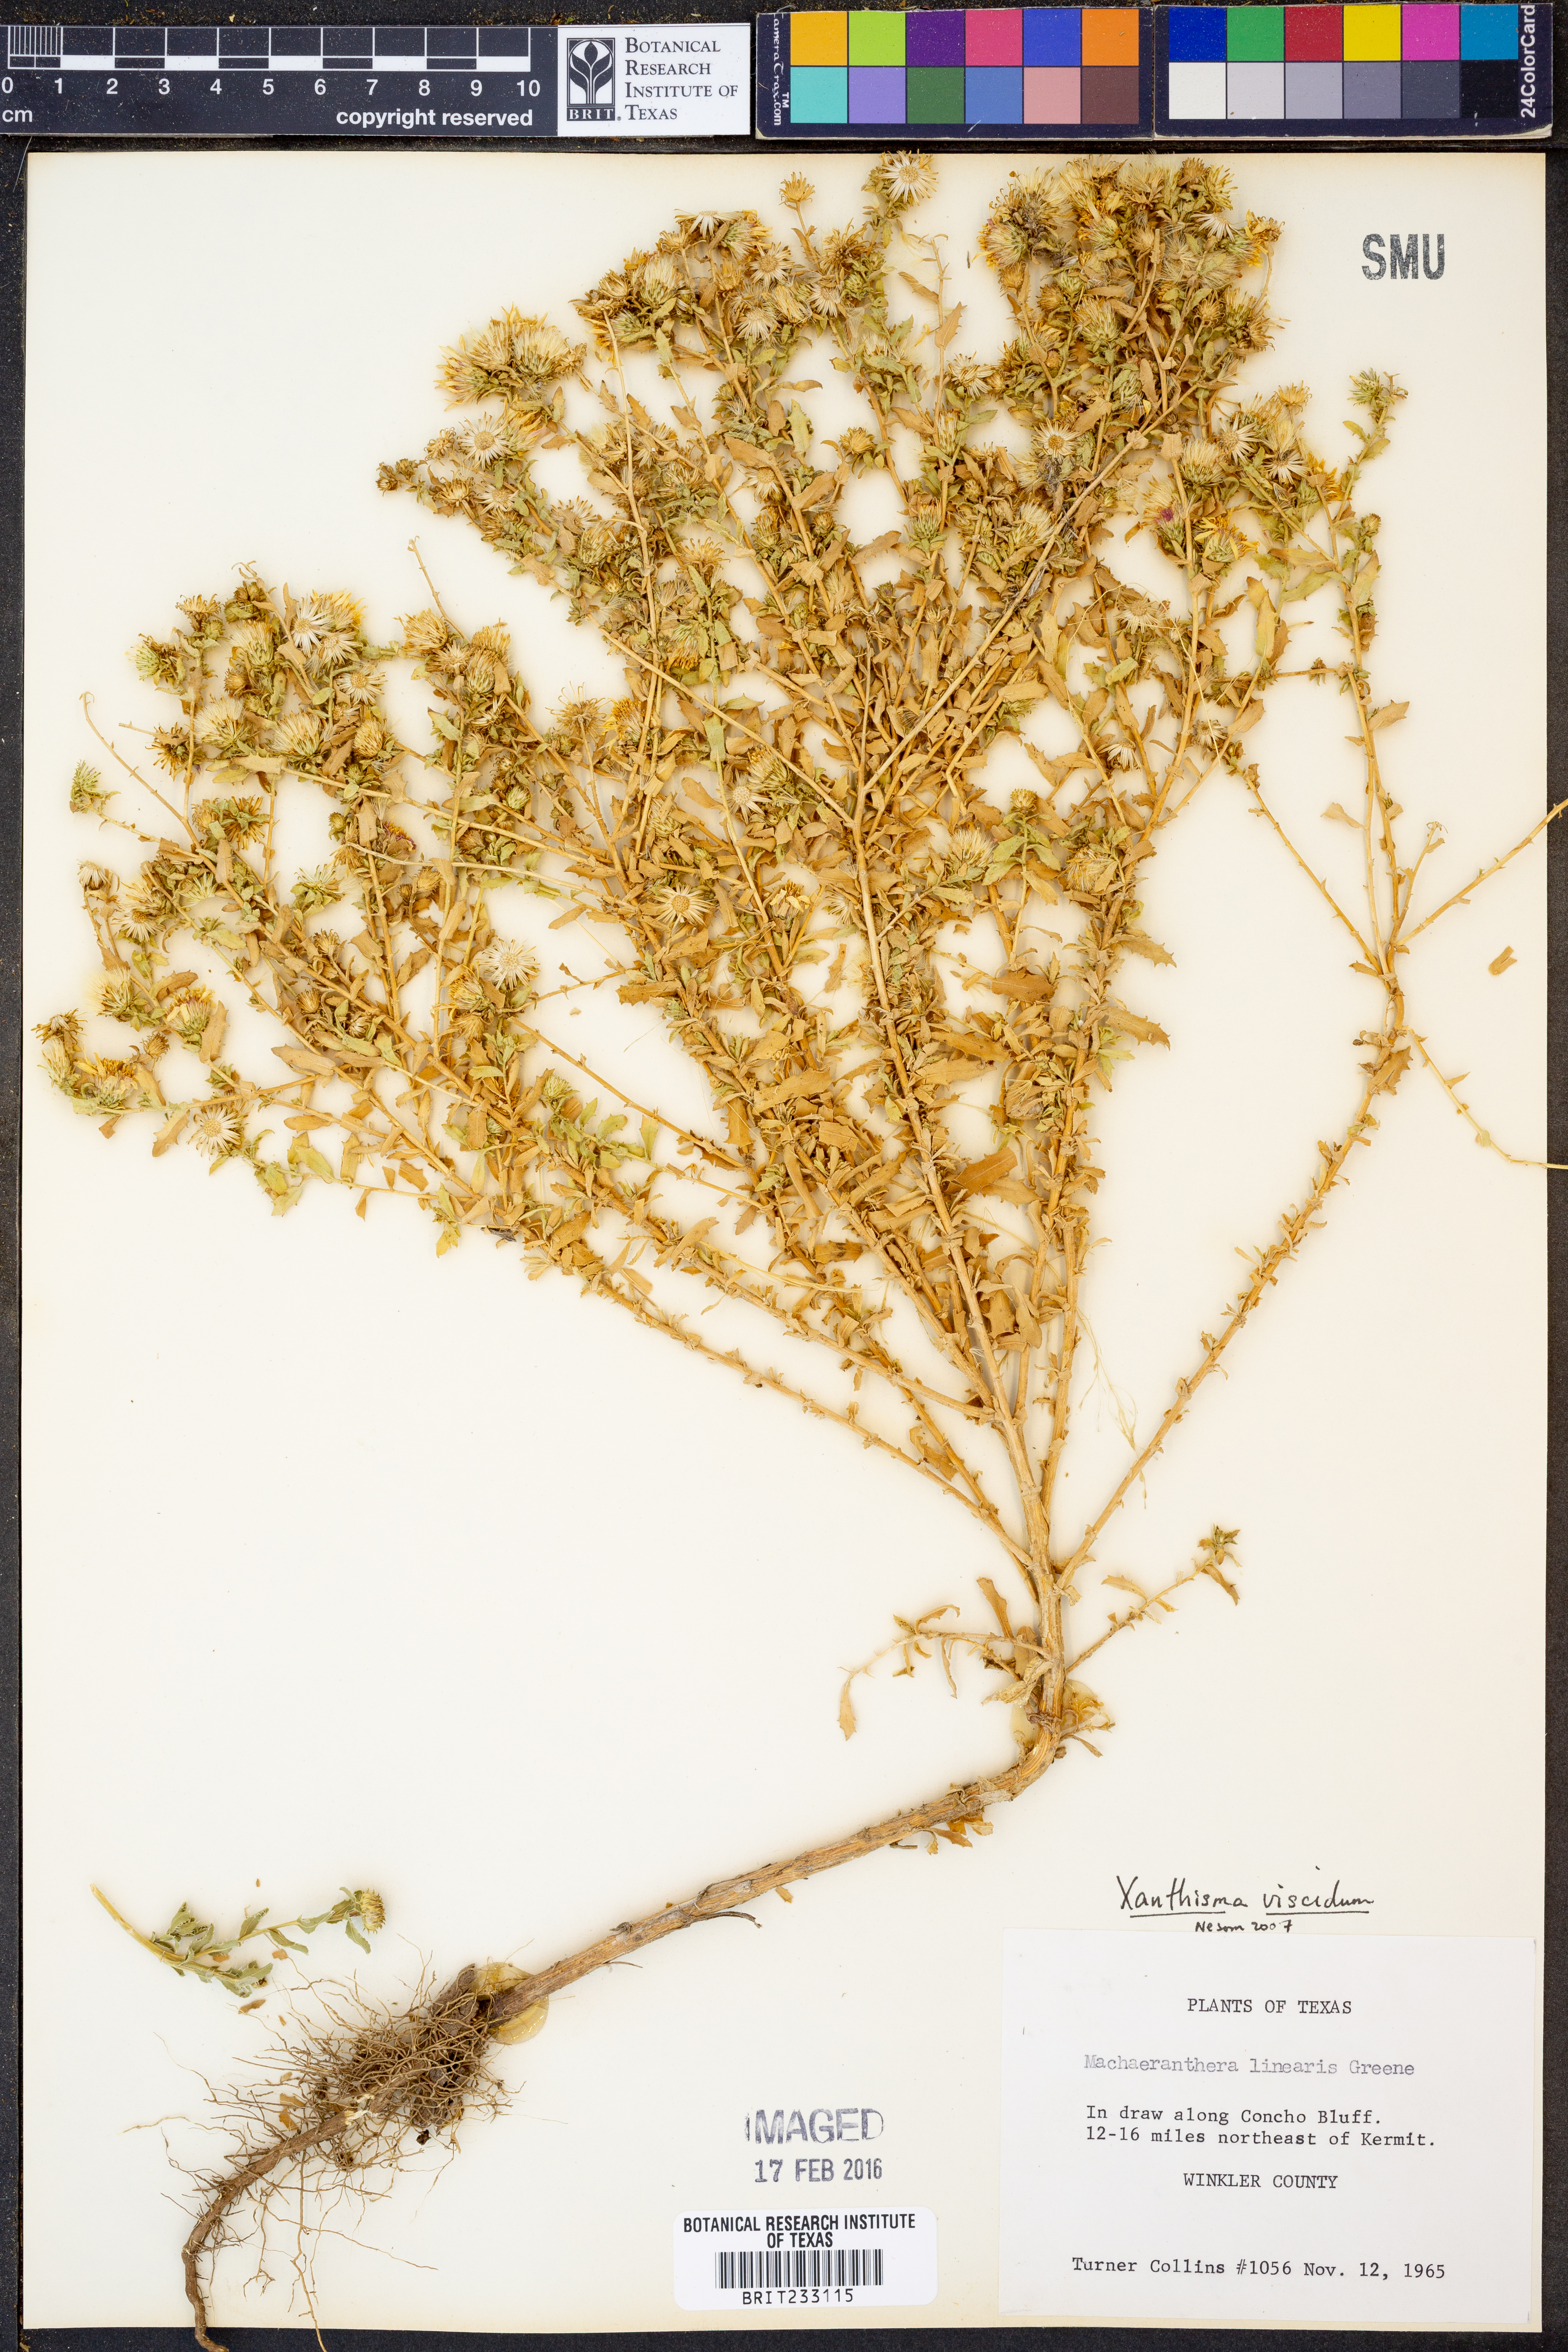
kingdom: Plantae
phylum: Tracheophyta
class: Magnoliopsida
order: Asterales
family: Asteraceae
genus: Xanthisma
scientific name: Xanthisma viscidum
